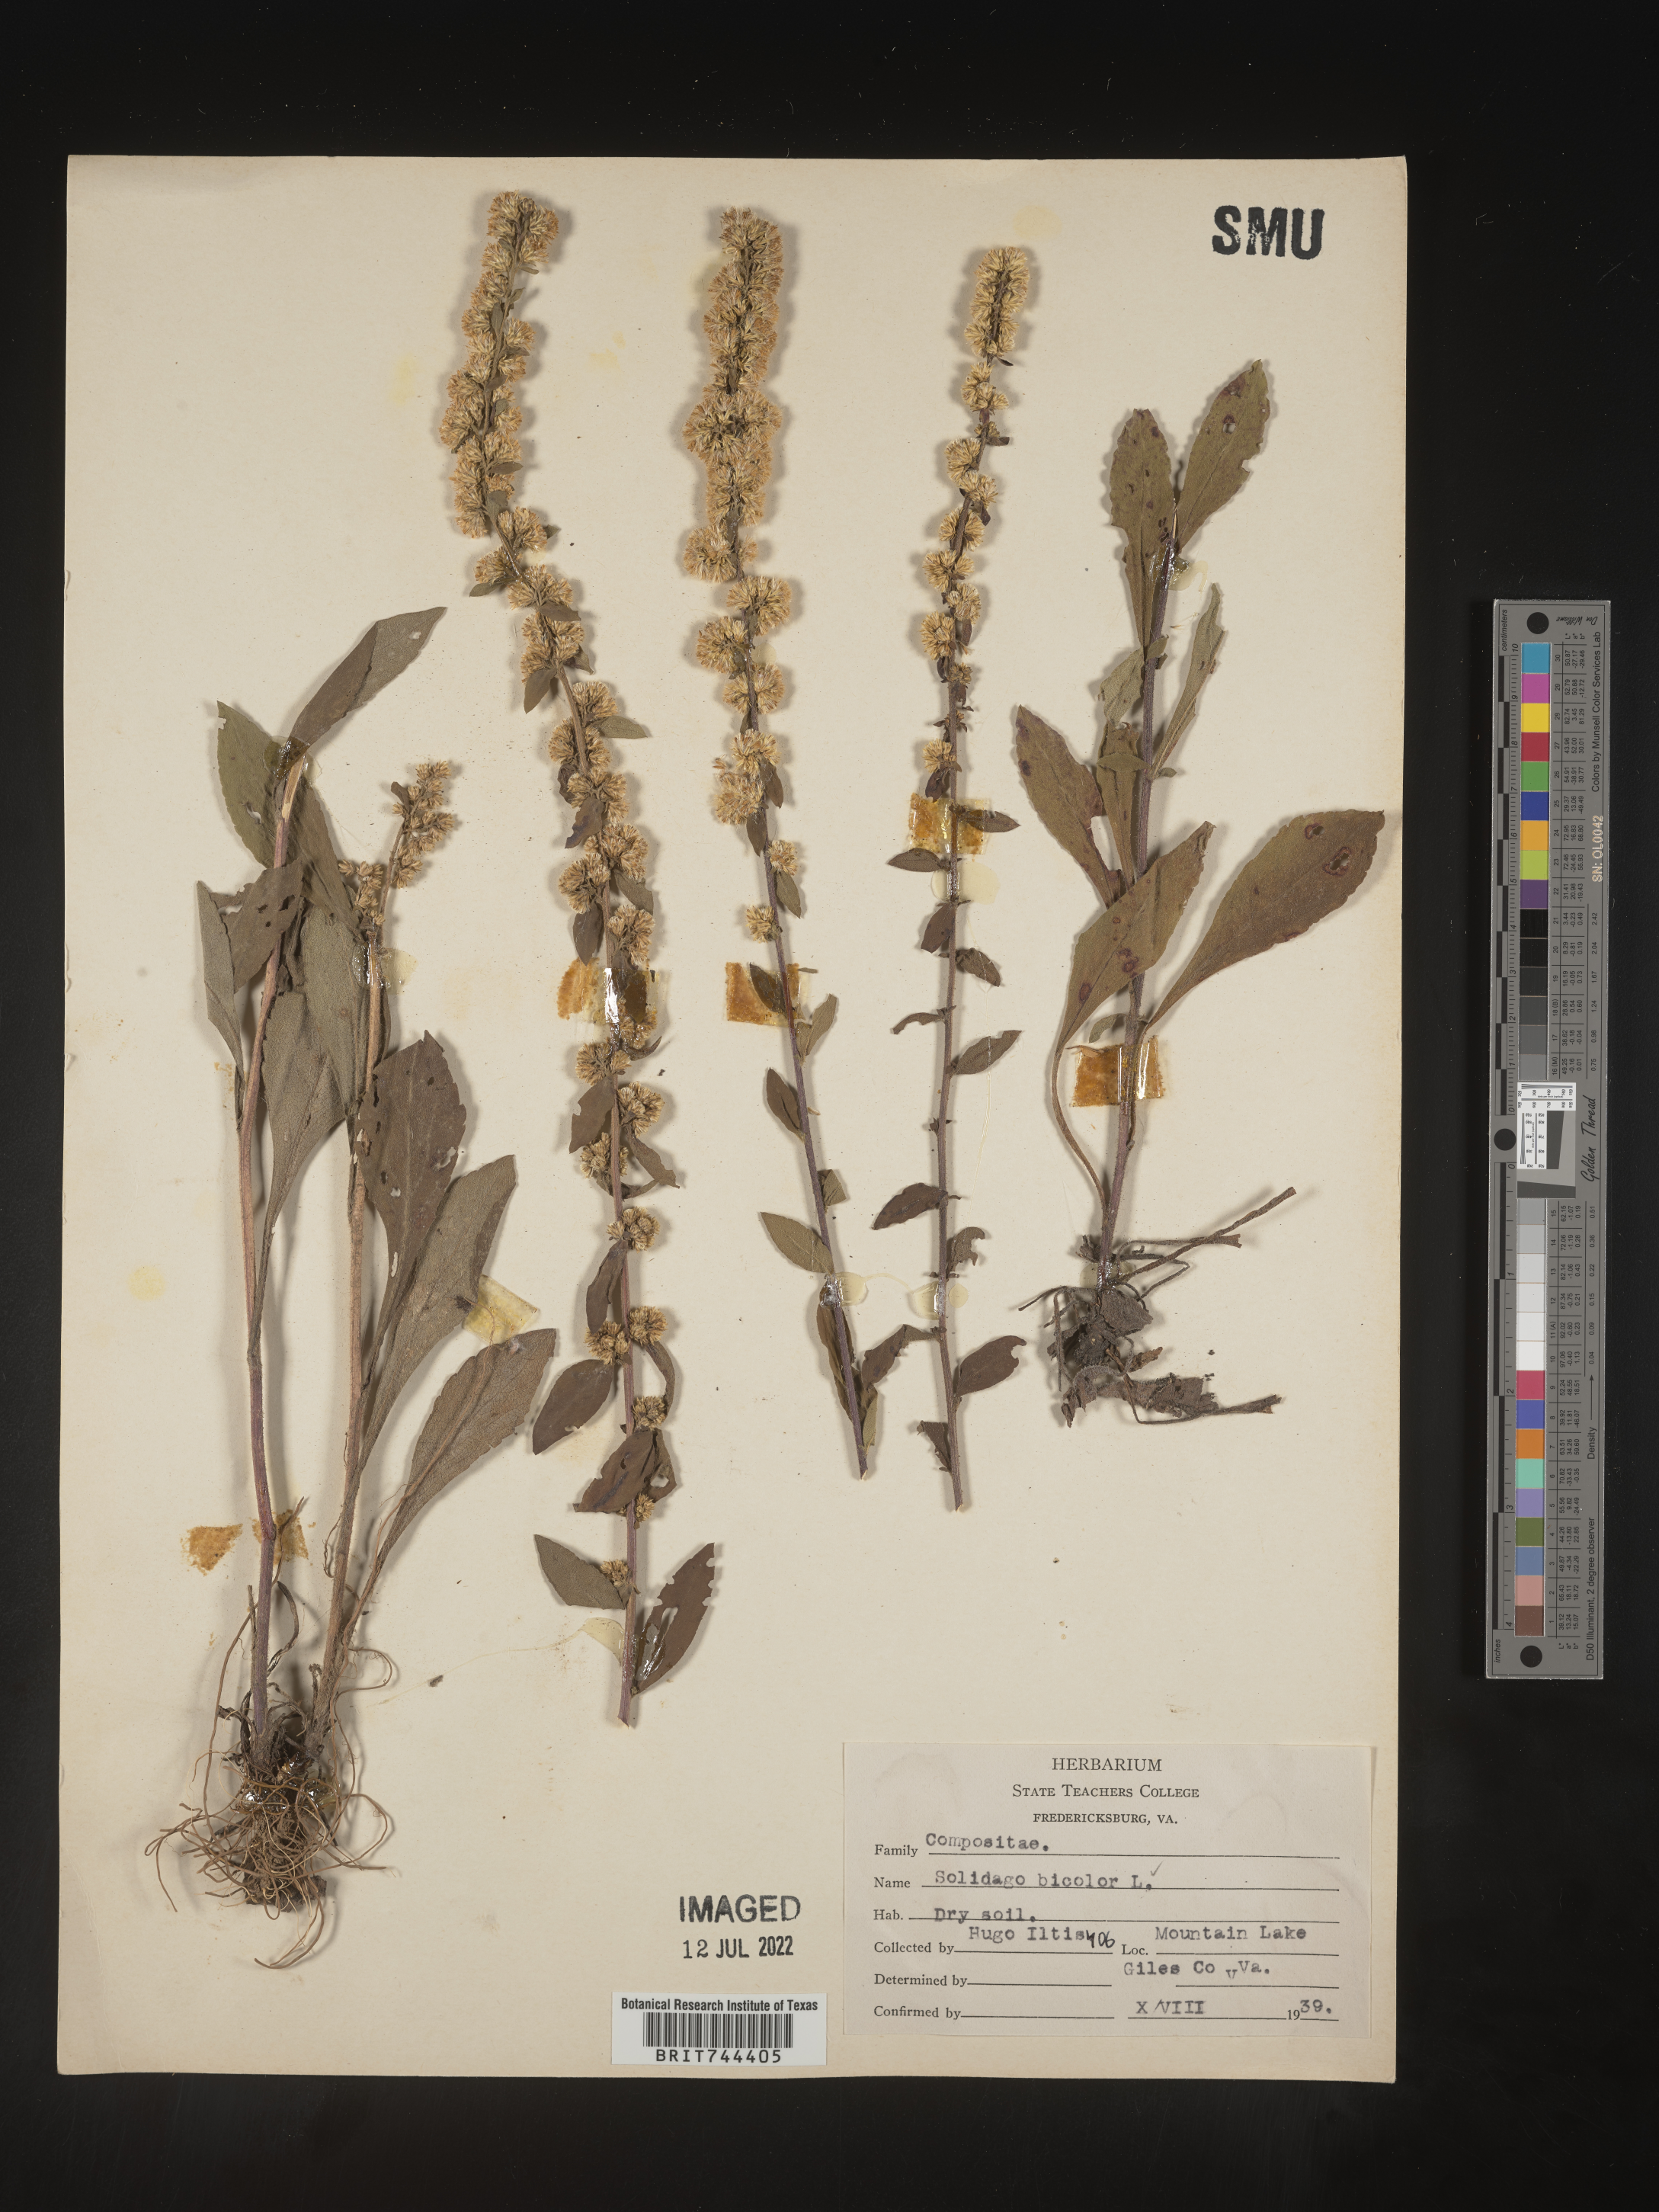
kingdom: Plantae
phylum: Tracheophyta
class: Magnoliopsida
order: Asterales
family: Asteraceae
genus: Solidago
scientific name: Solidago bicolor
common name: Silverrod
